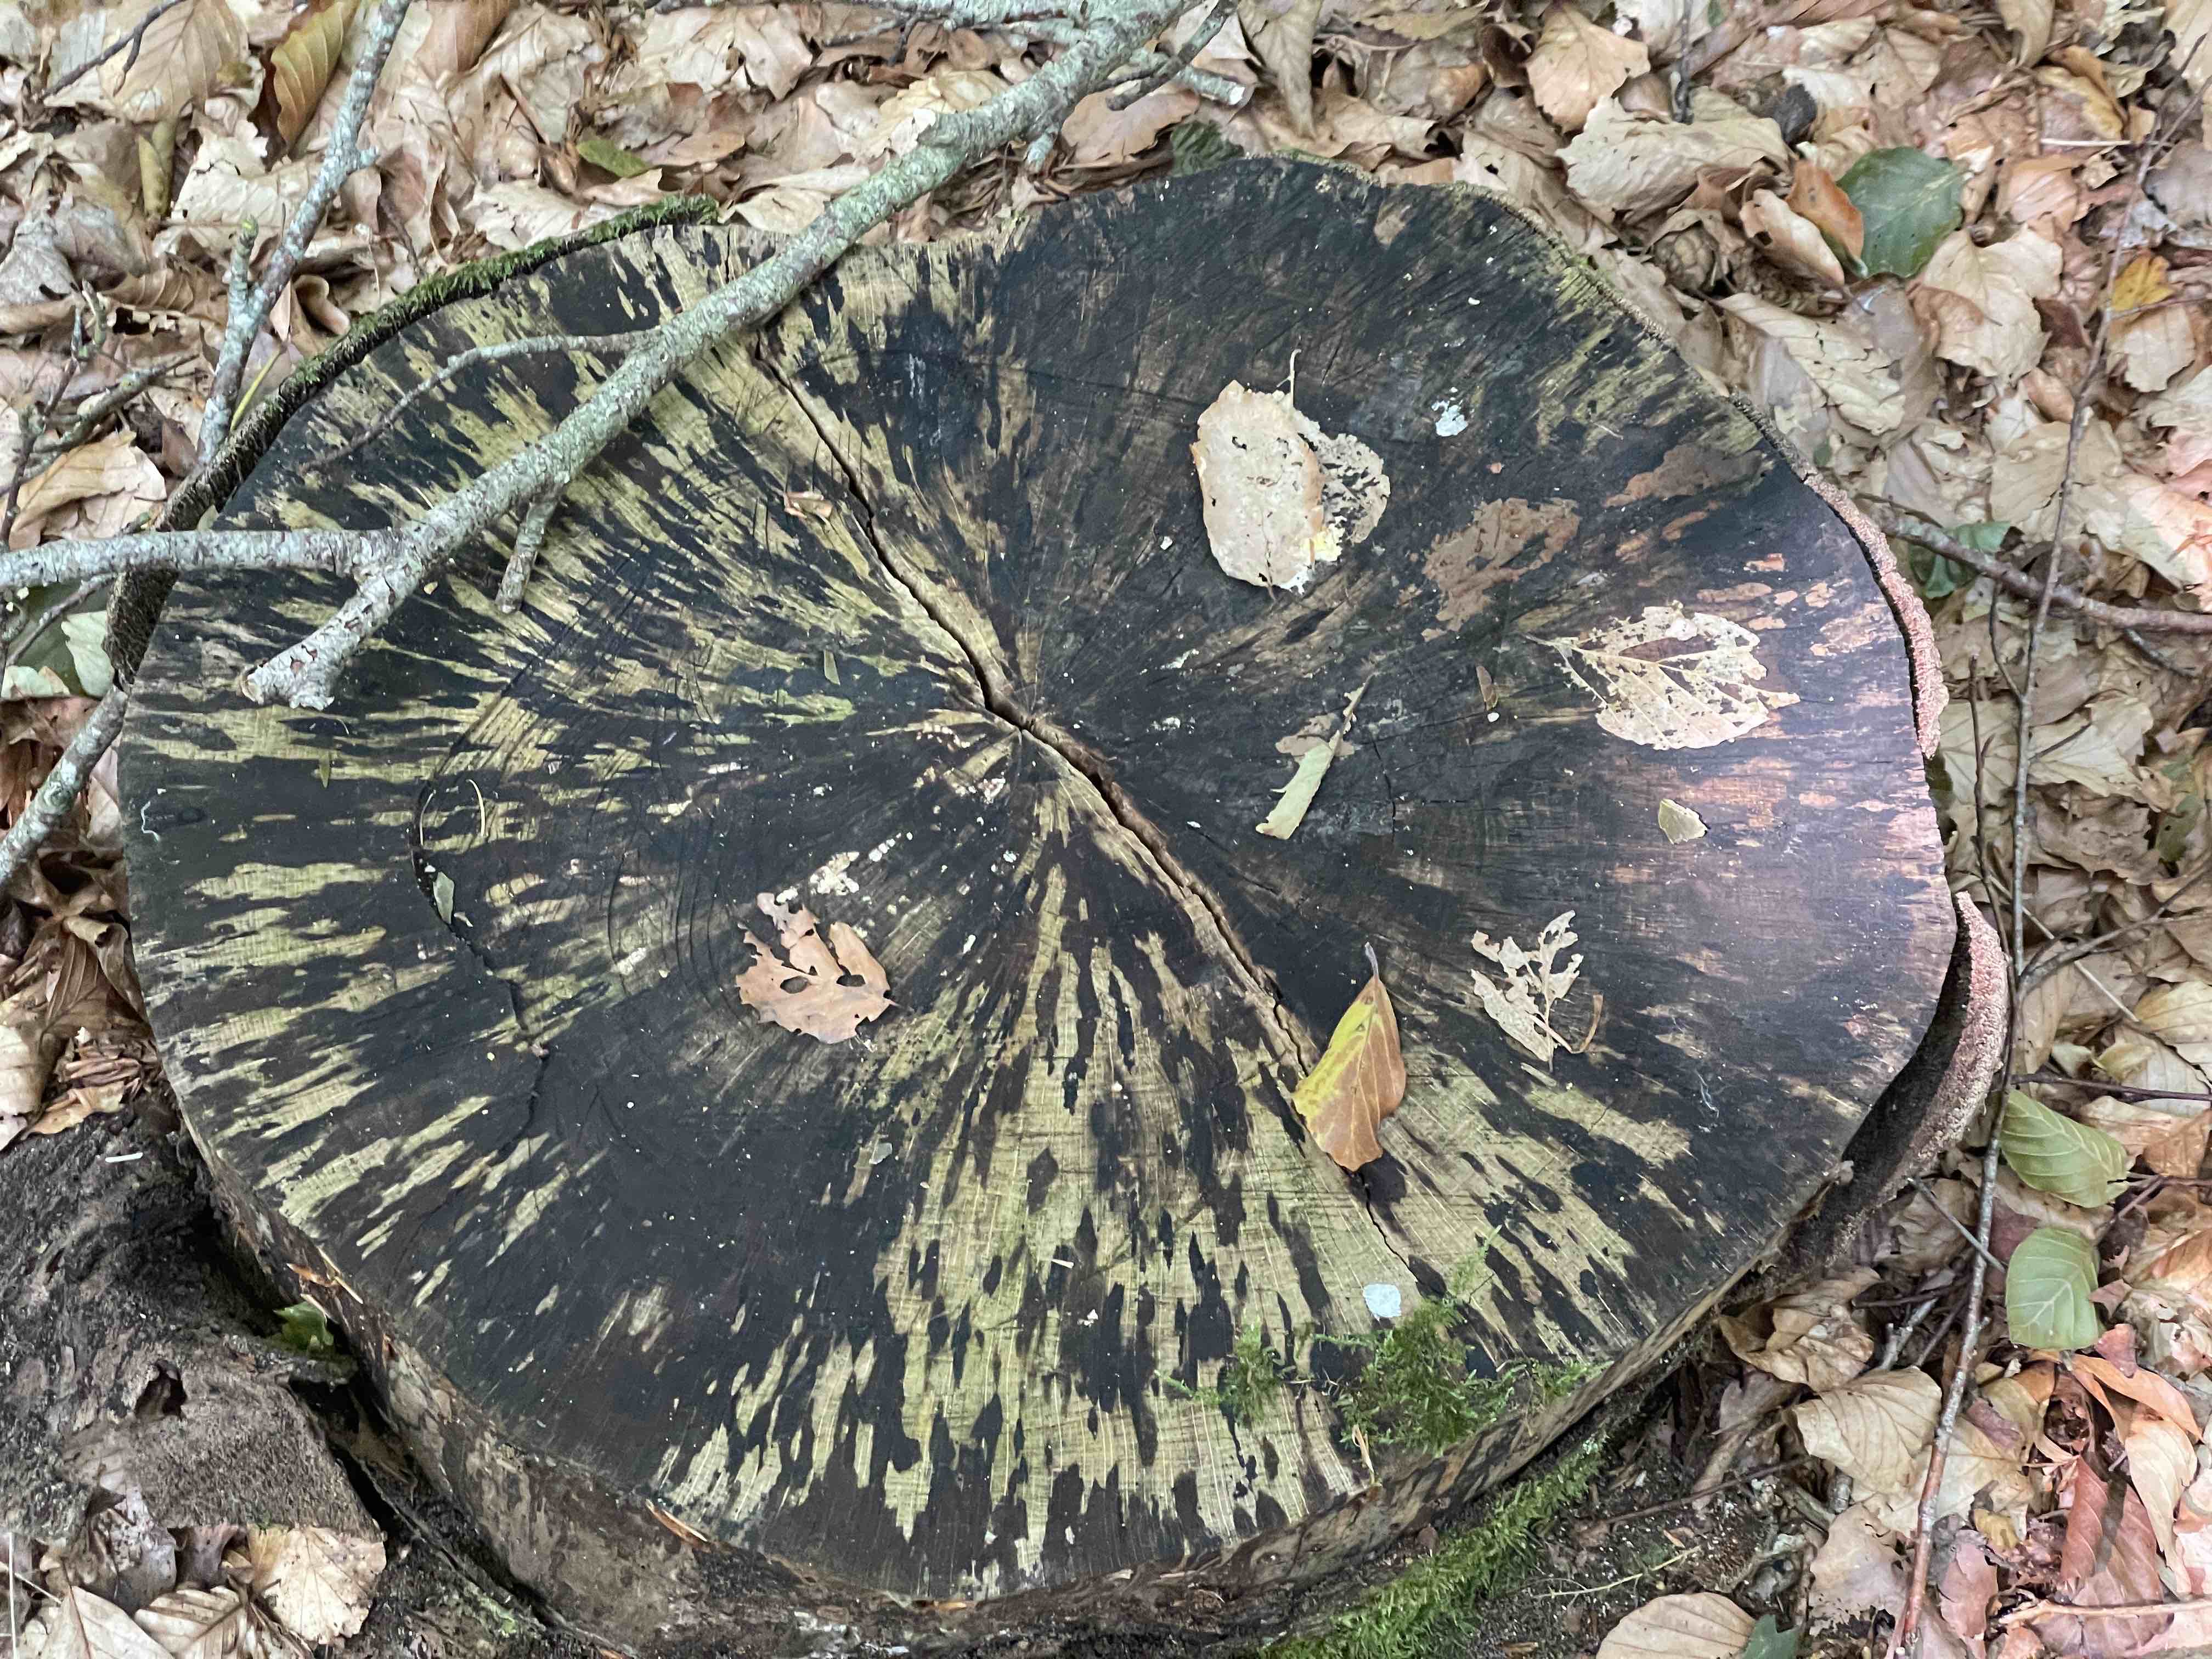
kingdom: Fungi
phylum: Ascomycota
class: Leotiomycetes
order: Helotiales
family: Helotiaceae
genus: Bispora
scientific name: Bispora pallescens
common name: måtte-snitskive
